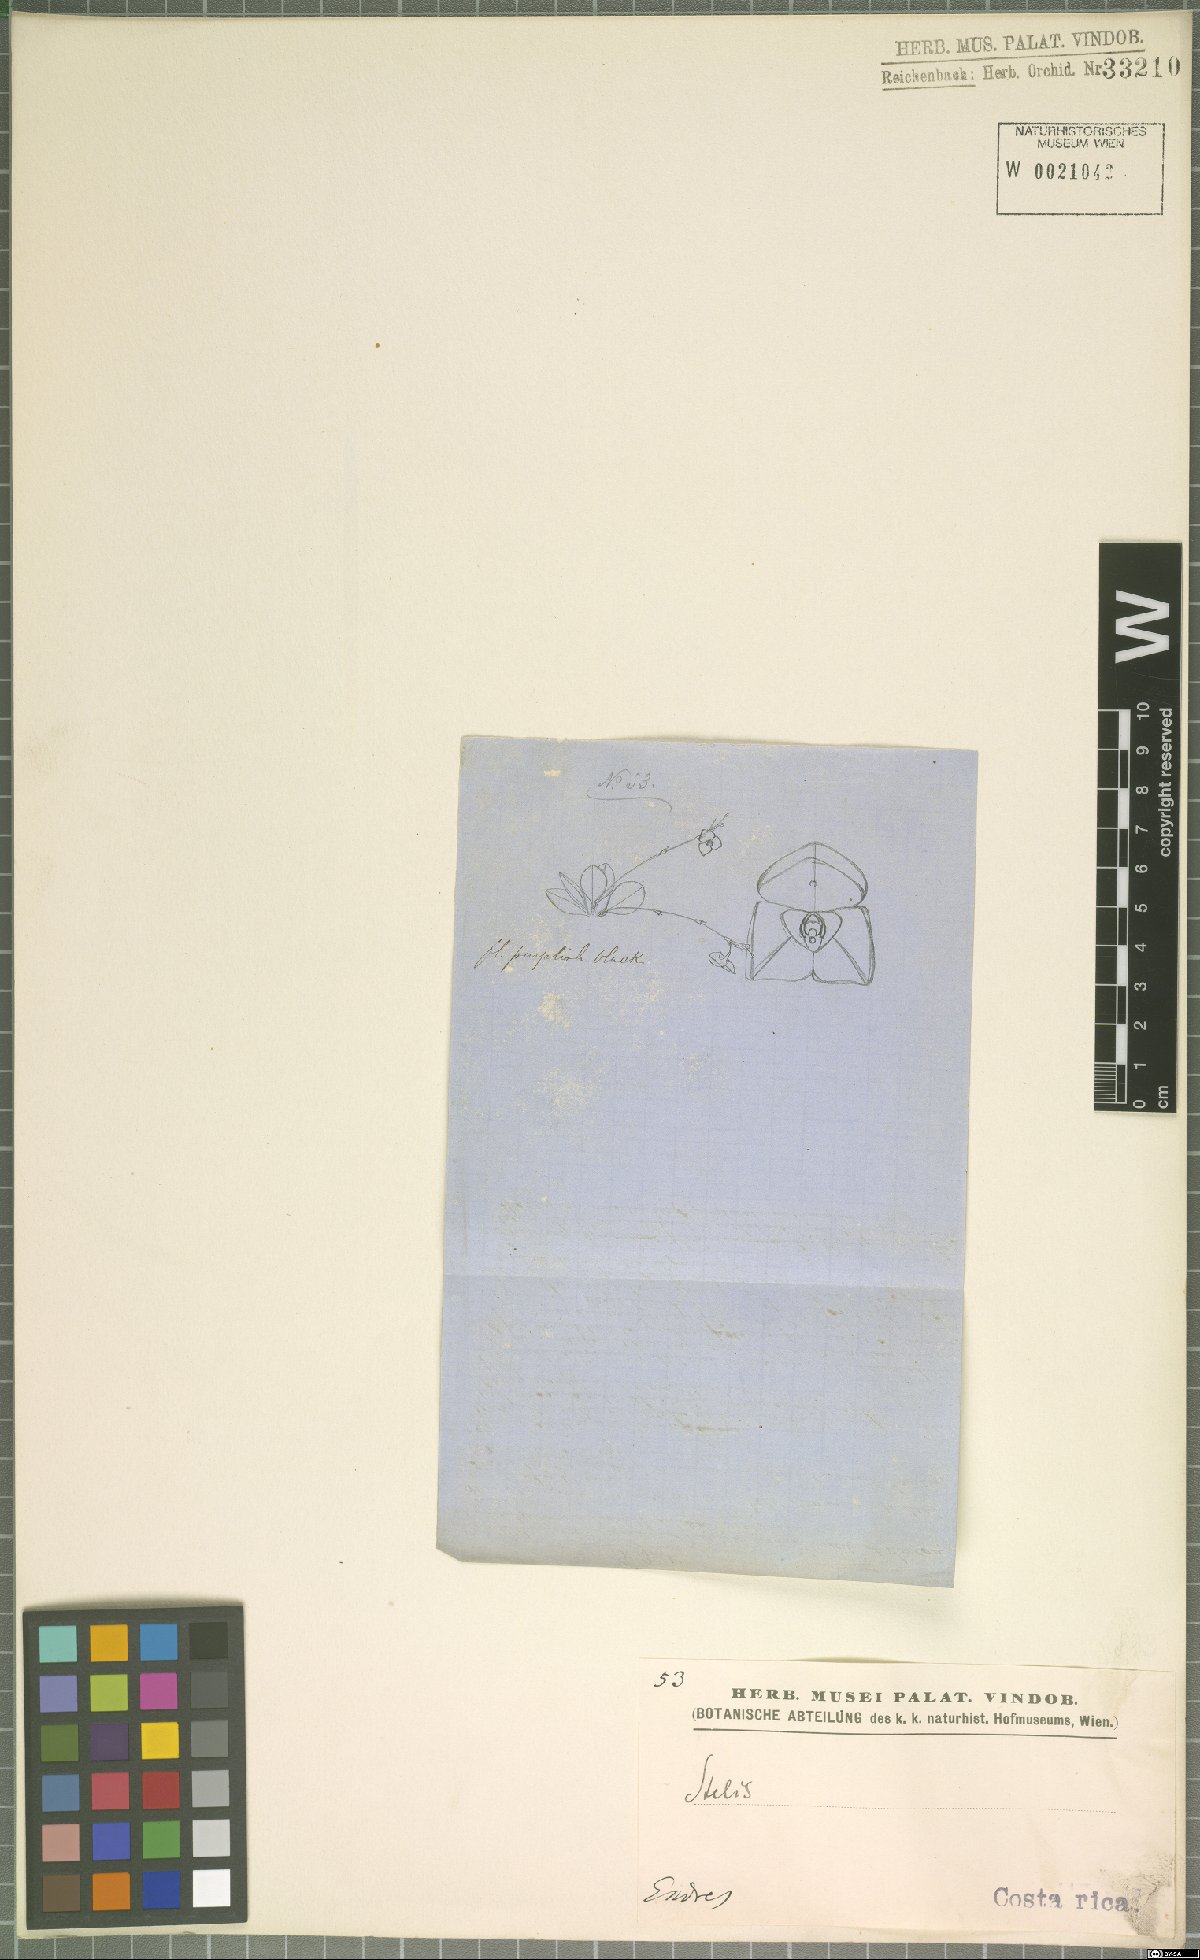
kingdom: Plantae
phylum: Tracheophyta
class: Liliopsida
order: Asparagales
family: Orchidaceae
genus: Stelis
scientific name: Stelis
